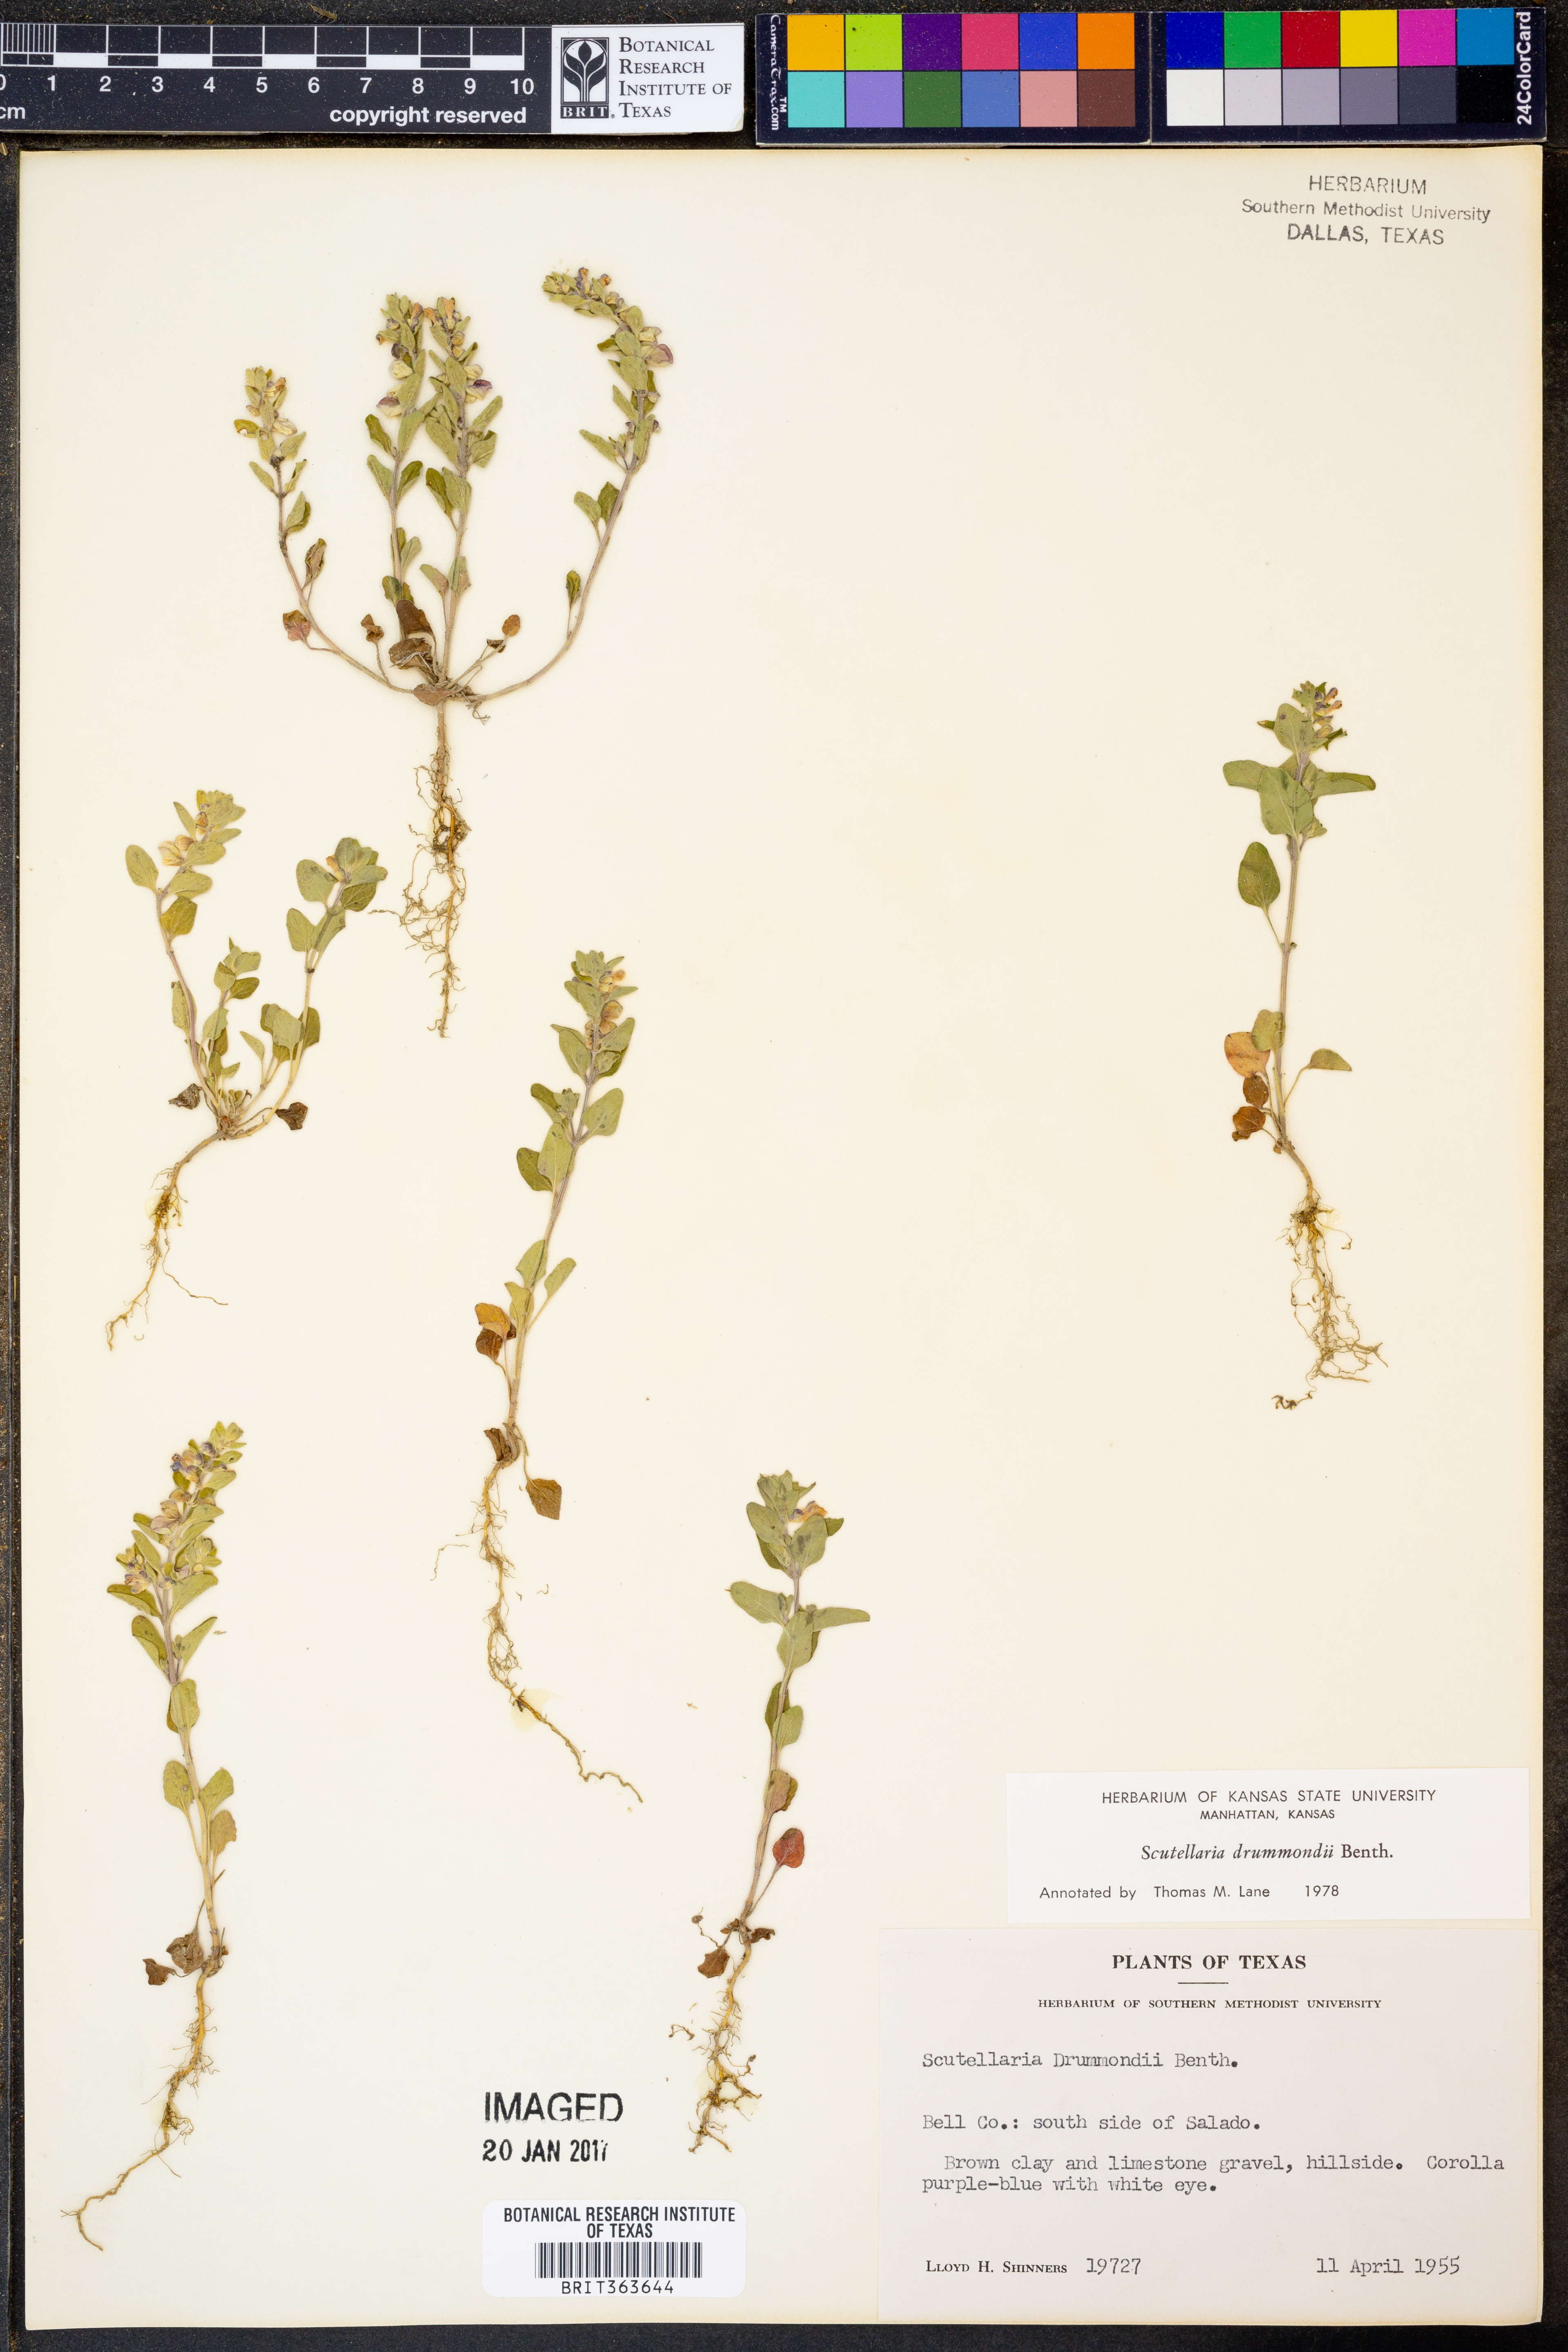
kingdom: Plantae
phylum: Tracheophyta
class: Magnoliopsida
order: Lamiales
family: Lamiaceae
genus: Scutellaria
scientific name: Scutellaria drummondii
